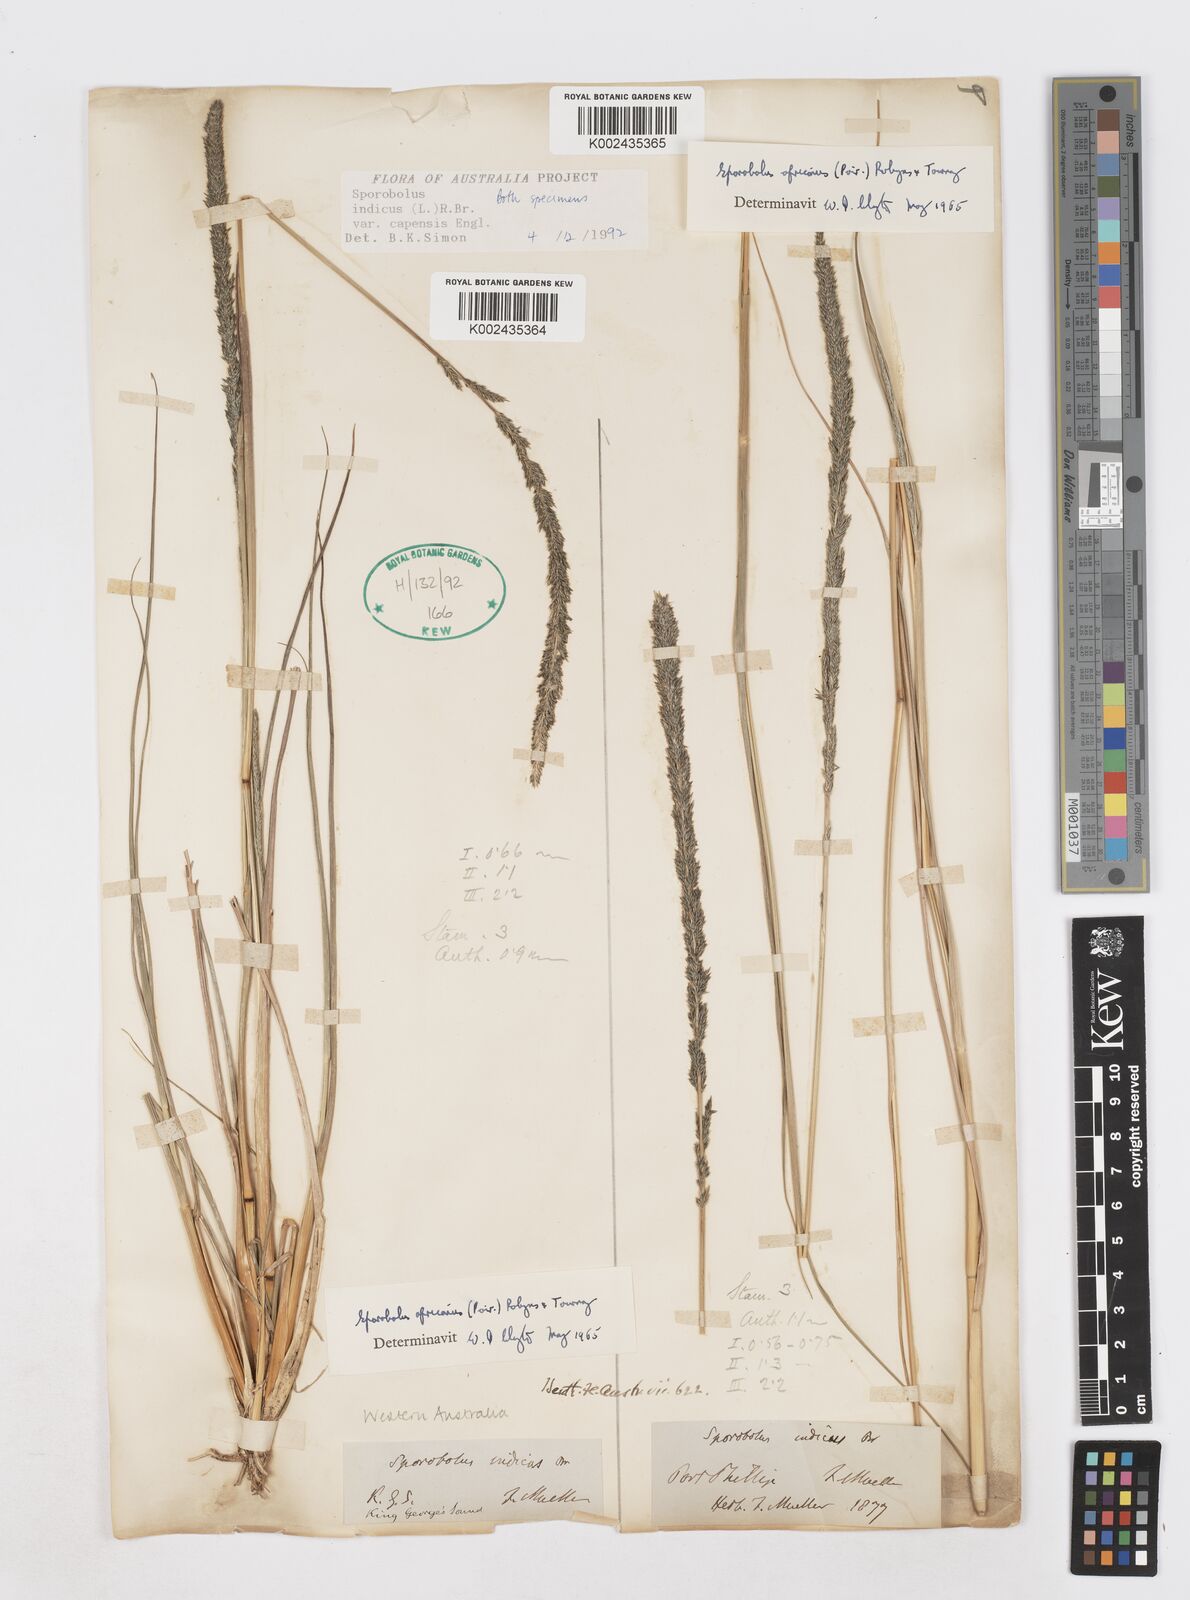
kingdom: Plantae
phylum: Tracheophyta
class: Liliopsida
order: Poales
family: Poaceae
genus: Sporobolus
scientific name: Sporobolus africanus
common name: African dropseed
